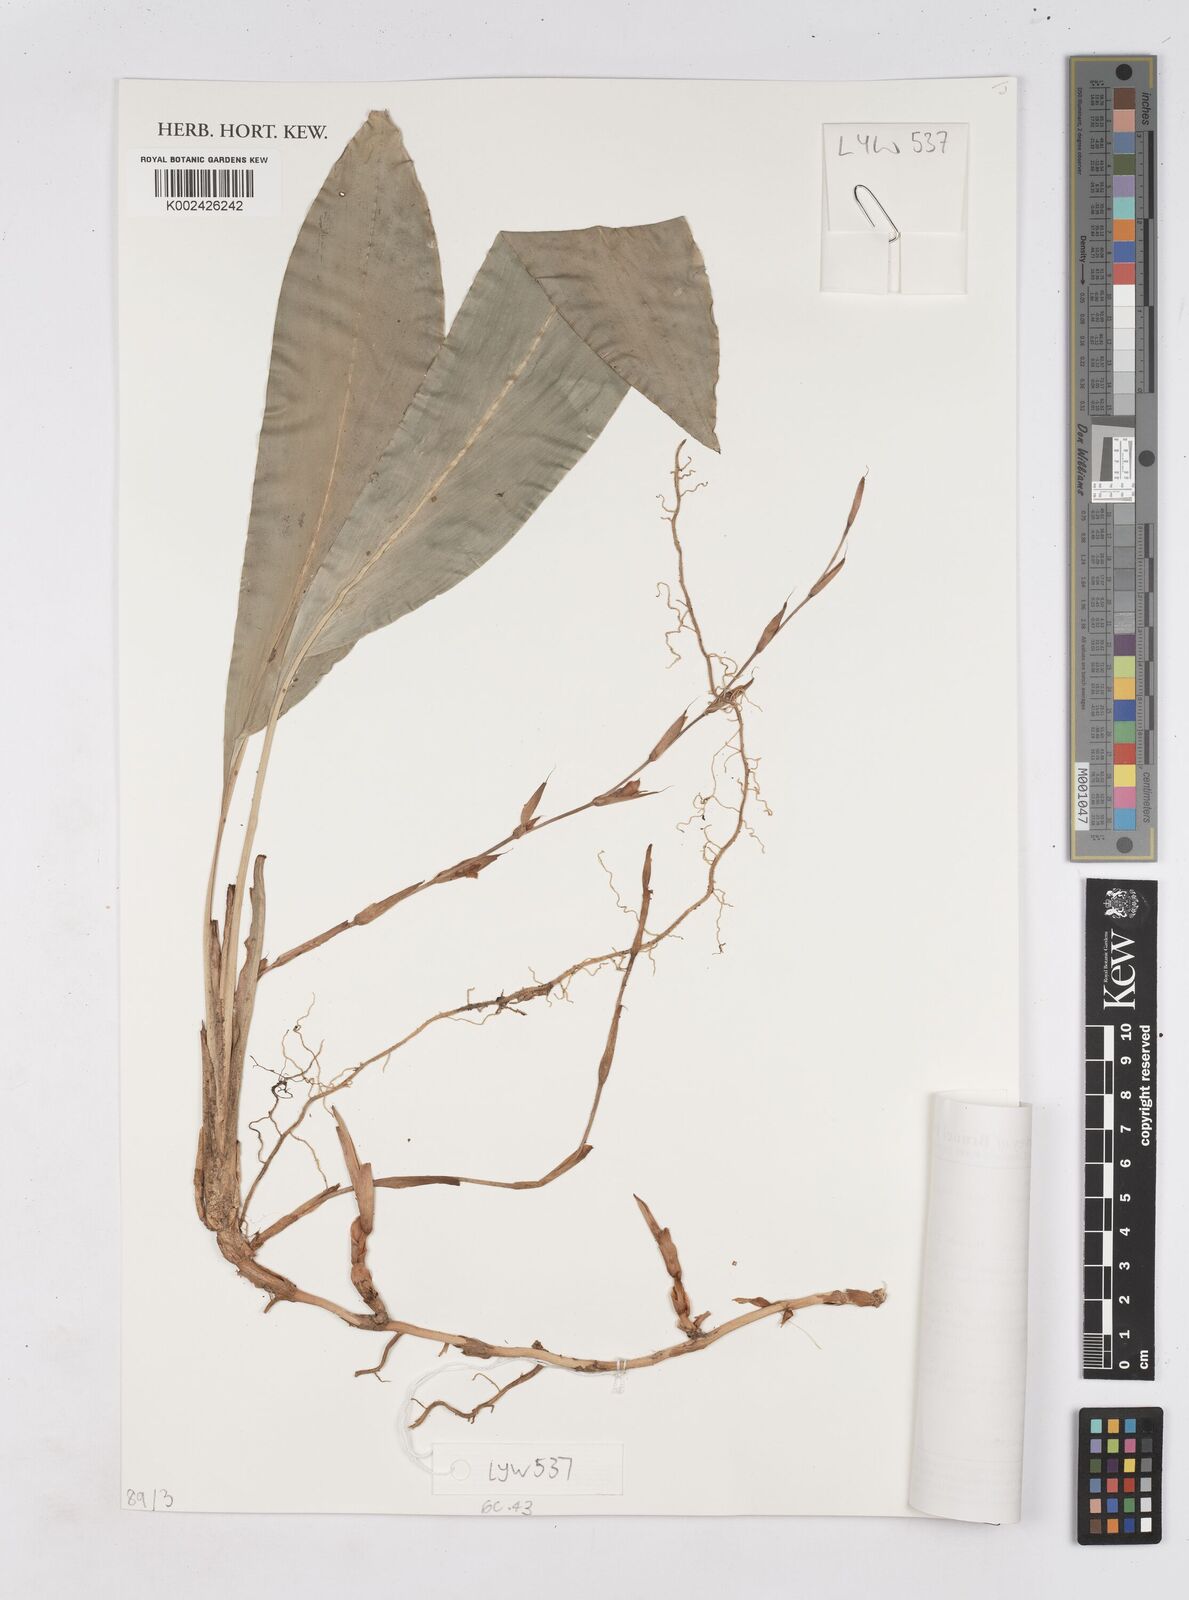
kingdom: Plantae
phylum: Tracheophyta
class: Liliopsida
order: Zingiberales
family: Zingiberaceae
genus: Tamijia
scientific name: Tamijia flagellaris
